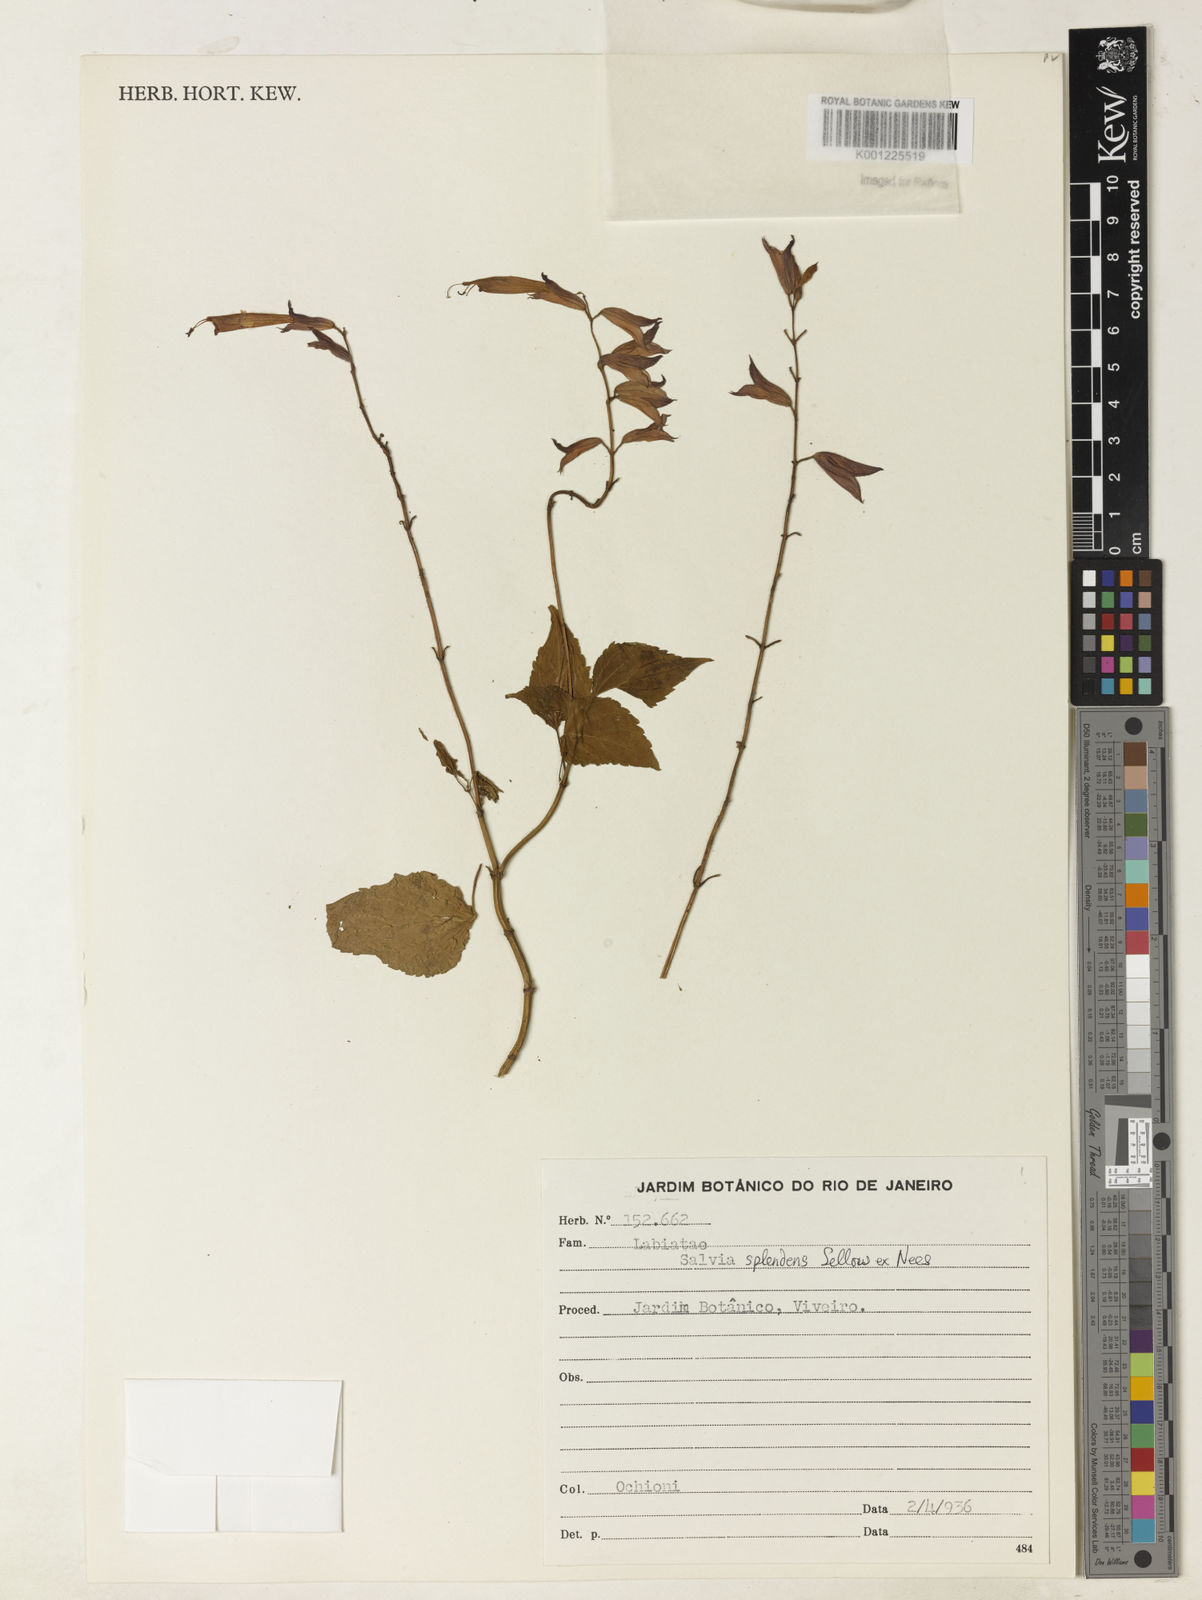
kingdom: Plantae
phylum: Tracheophyta
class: Magnoliopsida
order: Lamiales
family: Lamiaceae
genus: Salvia
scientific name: Salvia
